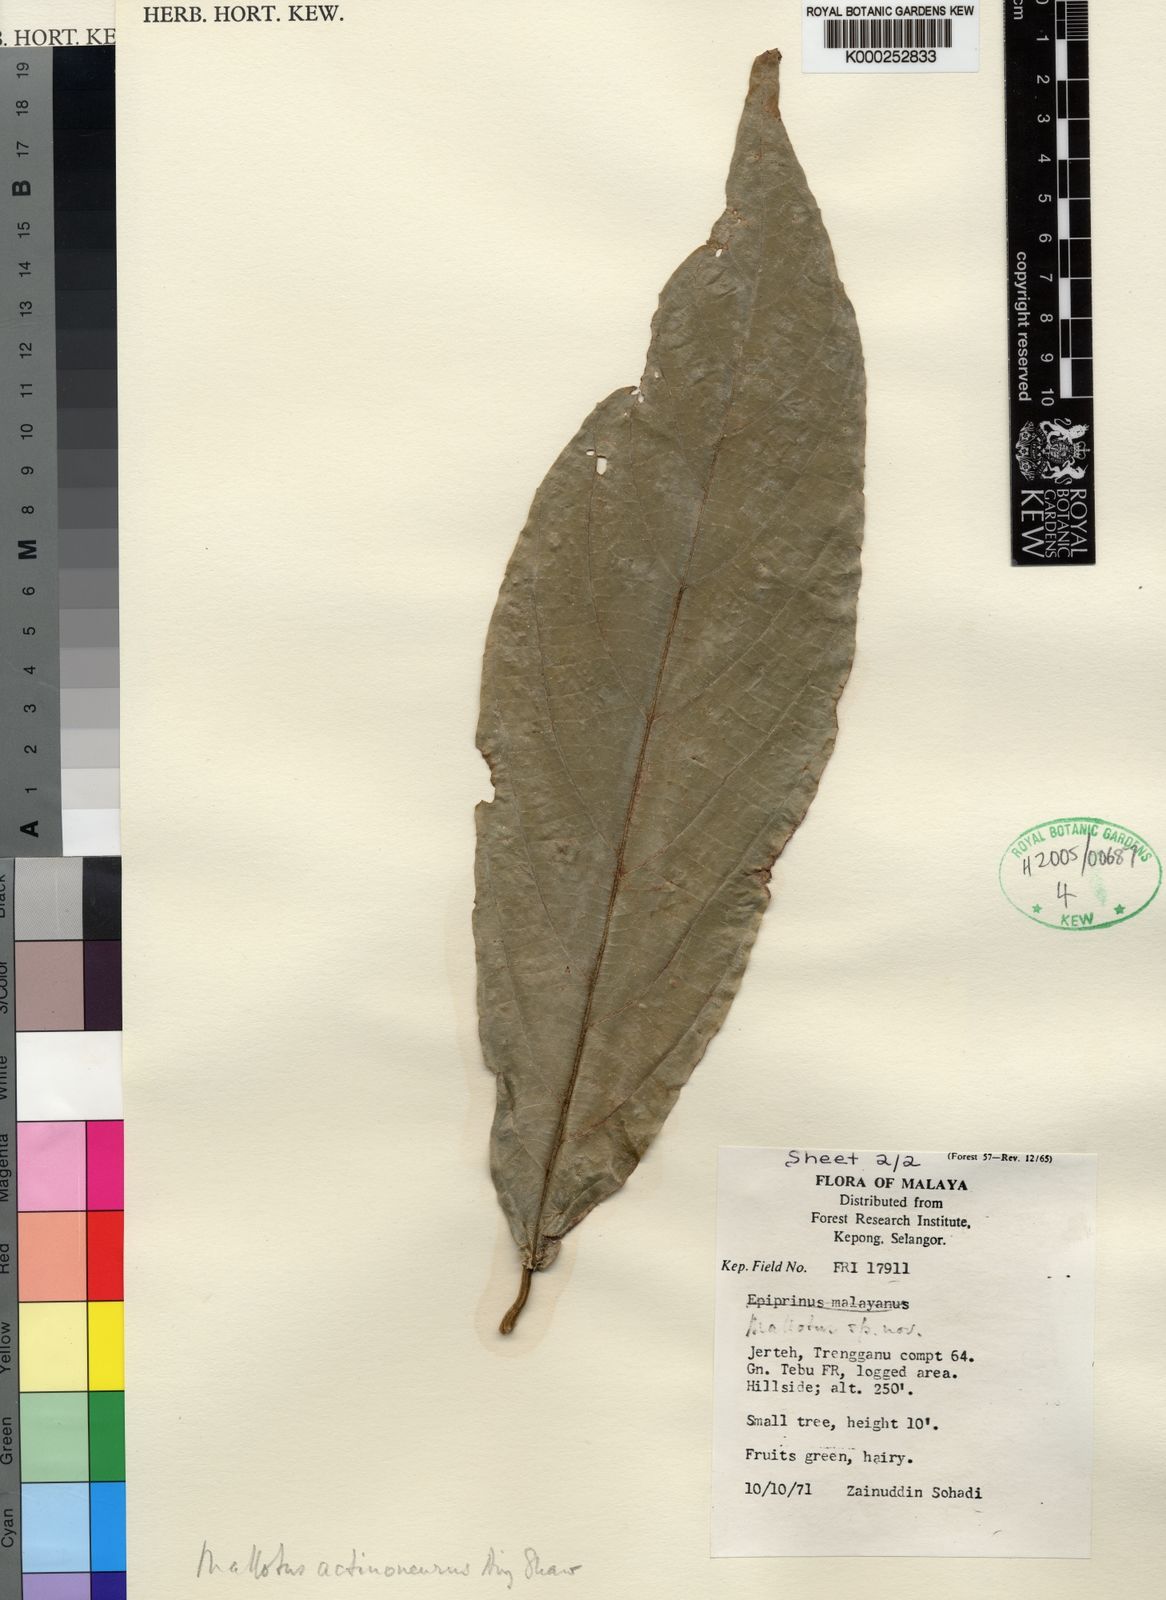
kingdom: Plantae
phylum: Tracheophyta
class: Magnoliopsida
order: Malpighiales
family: Euphorbiaceae
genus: Mallotus
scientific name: Mallotus actinoneurus
